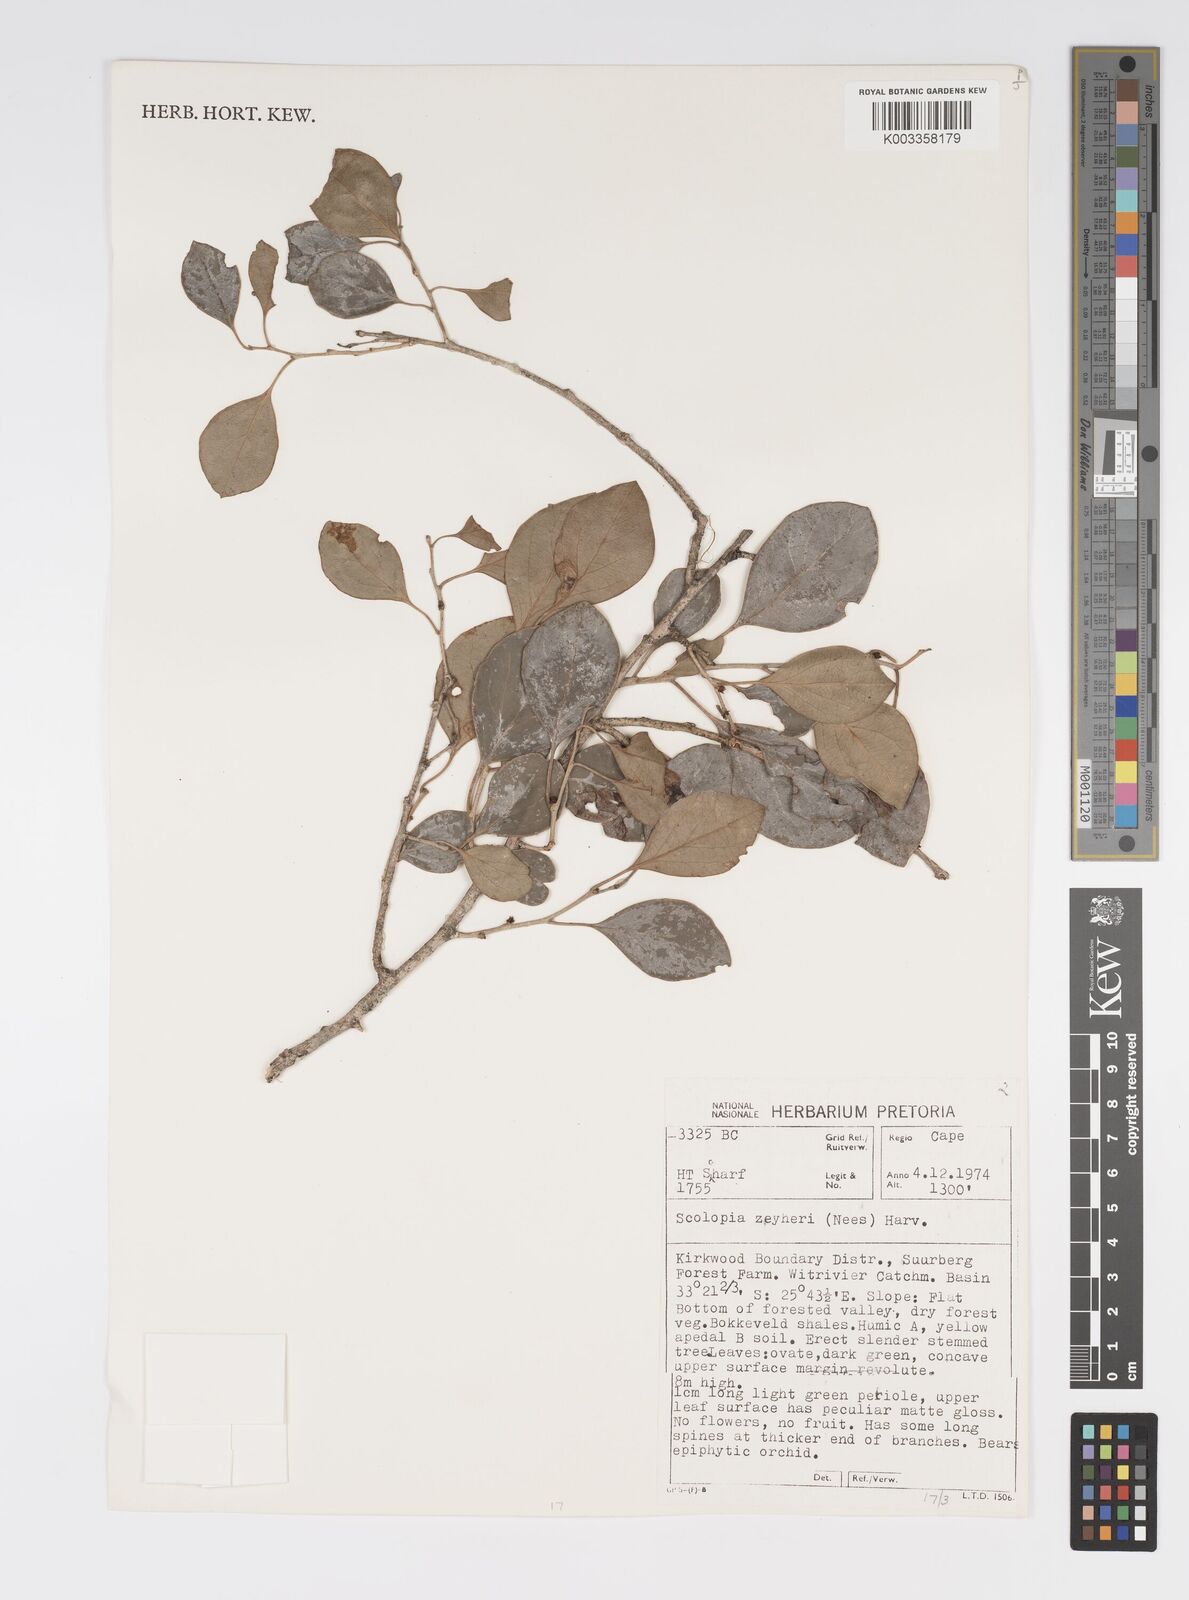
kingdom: Plantae
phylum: Tracheophyta
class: Magnoliopsida
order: Malpighiales
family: Salicaceae
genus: Scolopia
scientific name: Scolopia zeyheri
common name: Thorn pear
